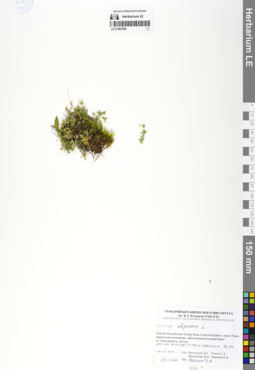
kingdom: Plantae
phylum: Tracheophyta
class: Magnoliopsida
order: Gentianales
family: Rubiaceae
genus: Galium
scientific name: Galium uliginosum
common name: Fen bedstraw
